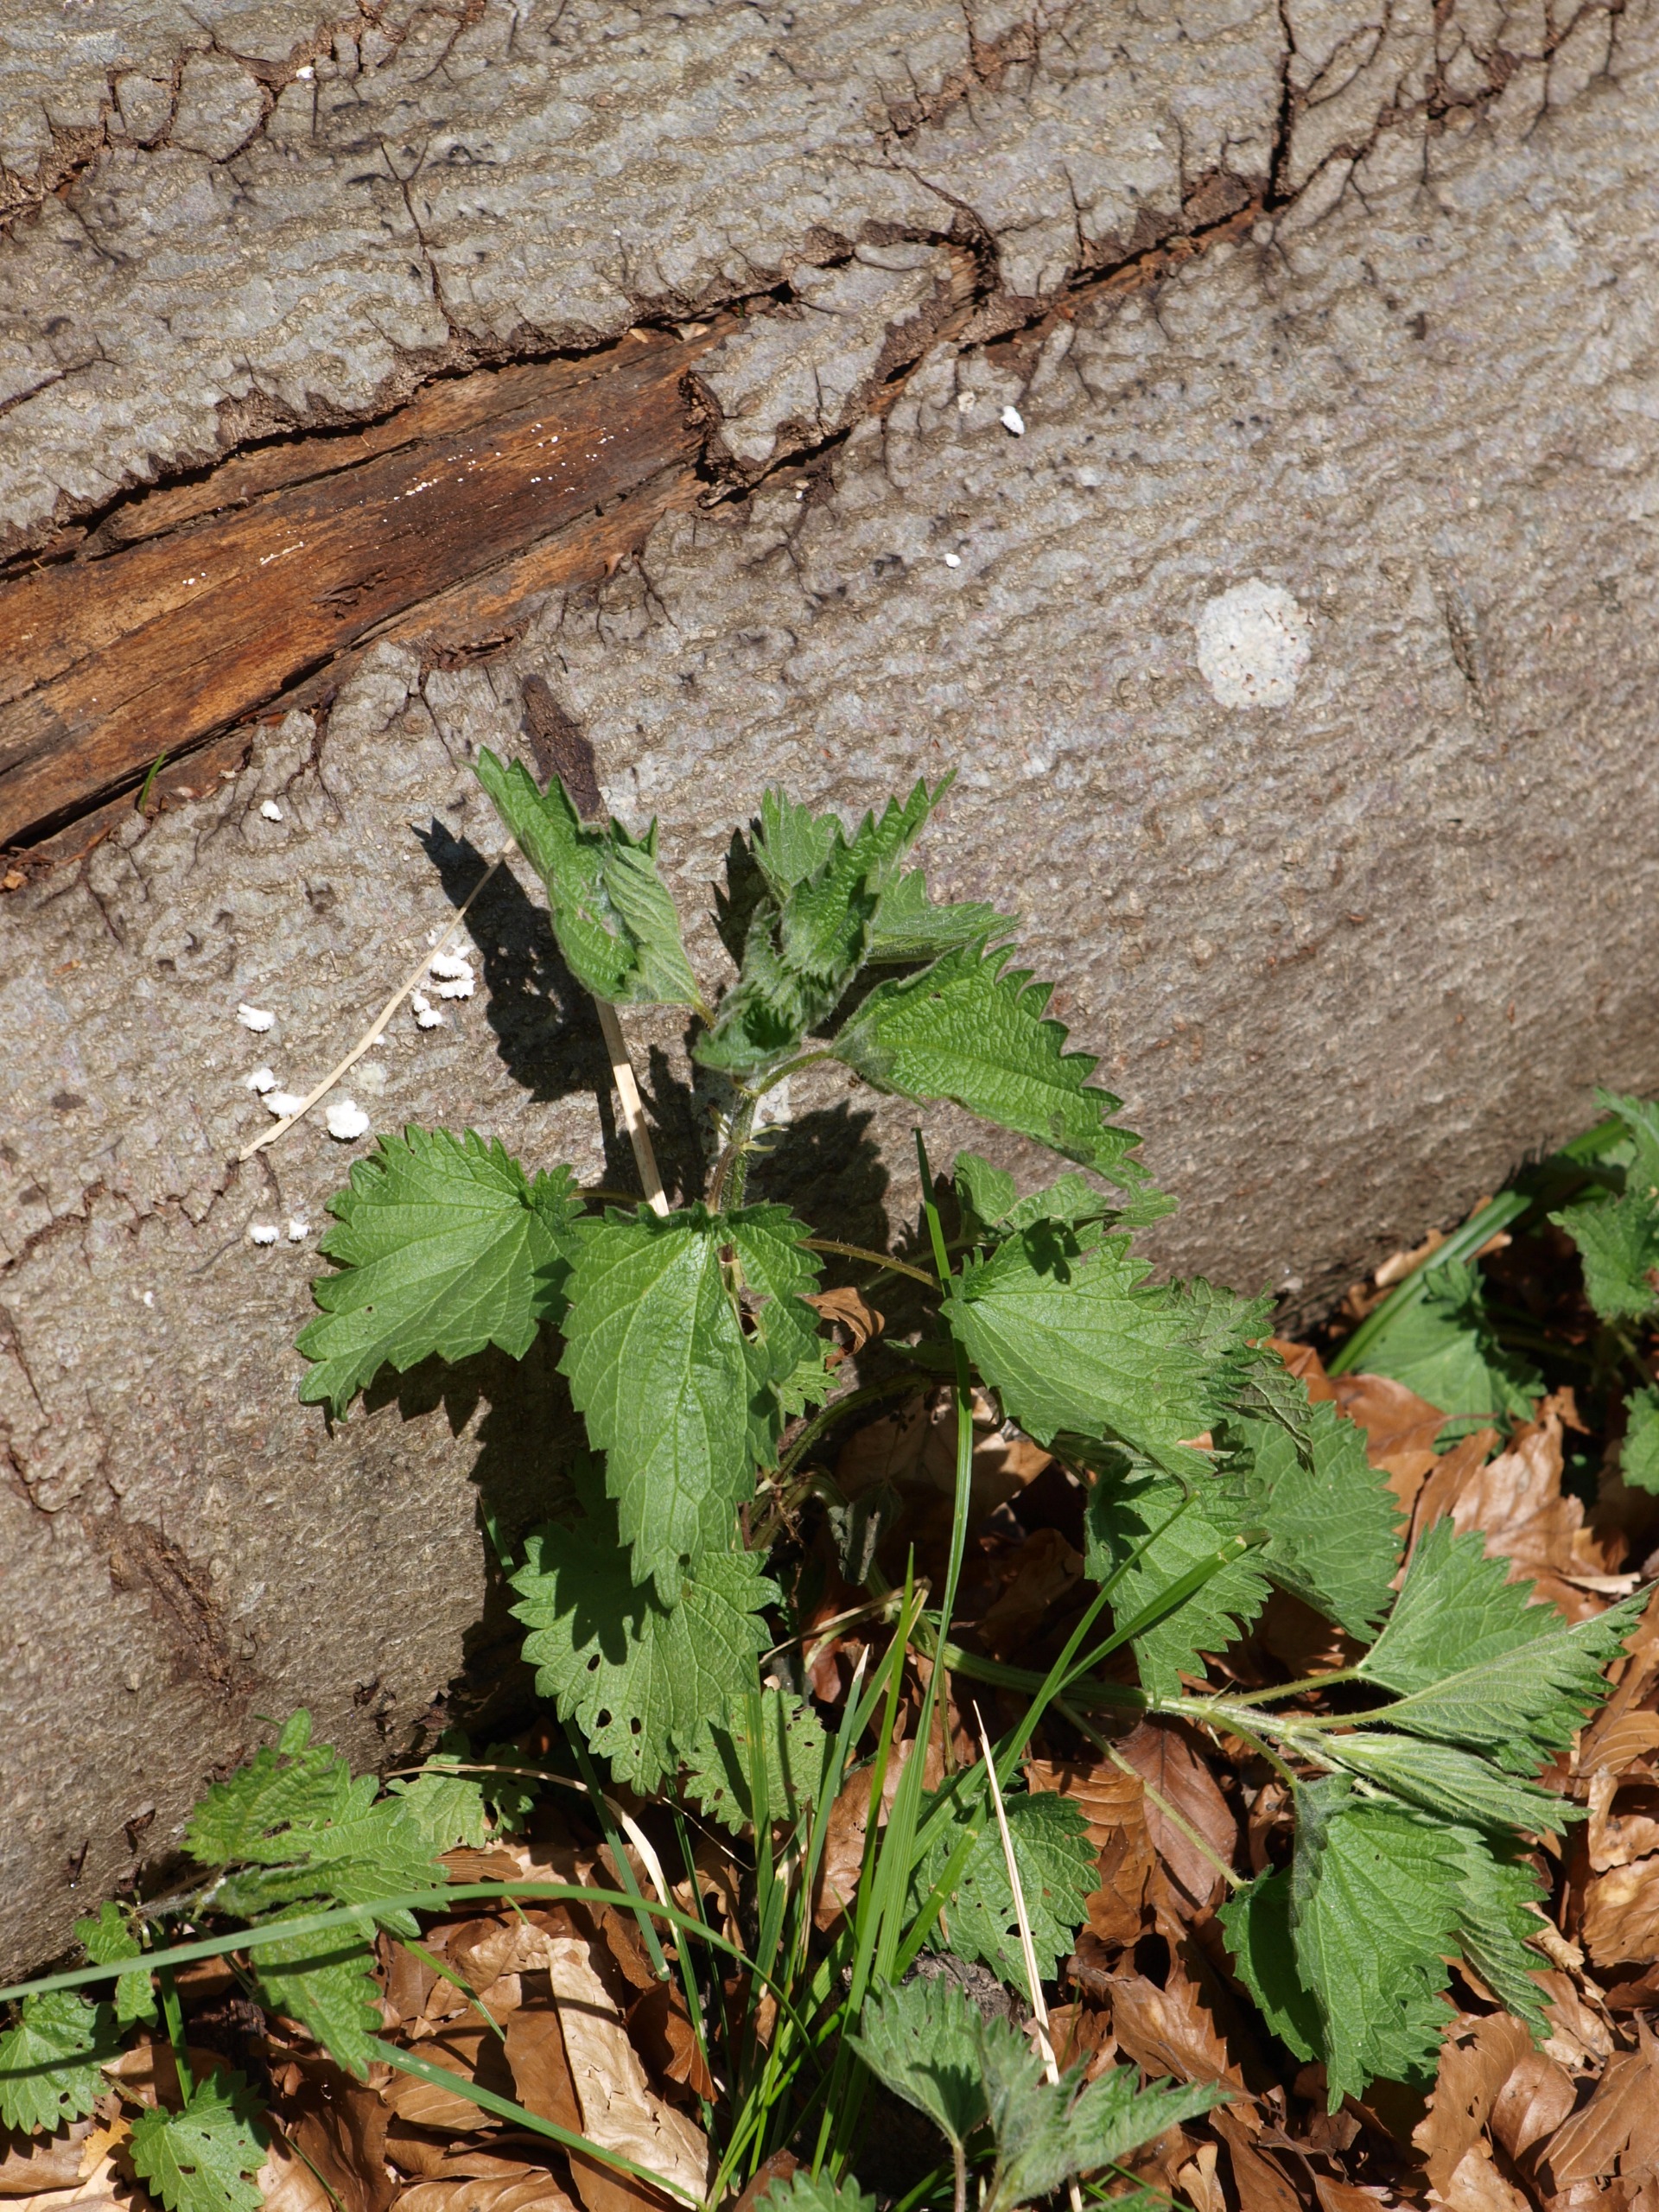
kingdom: Plantae
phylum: Tracheophyta
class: Magnoliopsida
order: Rosales
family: Urticaceae
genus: Urtica
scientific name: Urtica dioica
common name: Stor nælde
